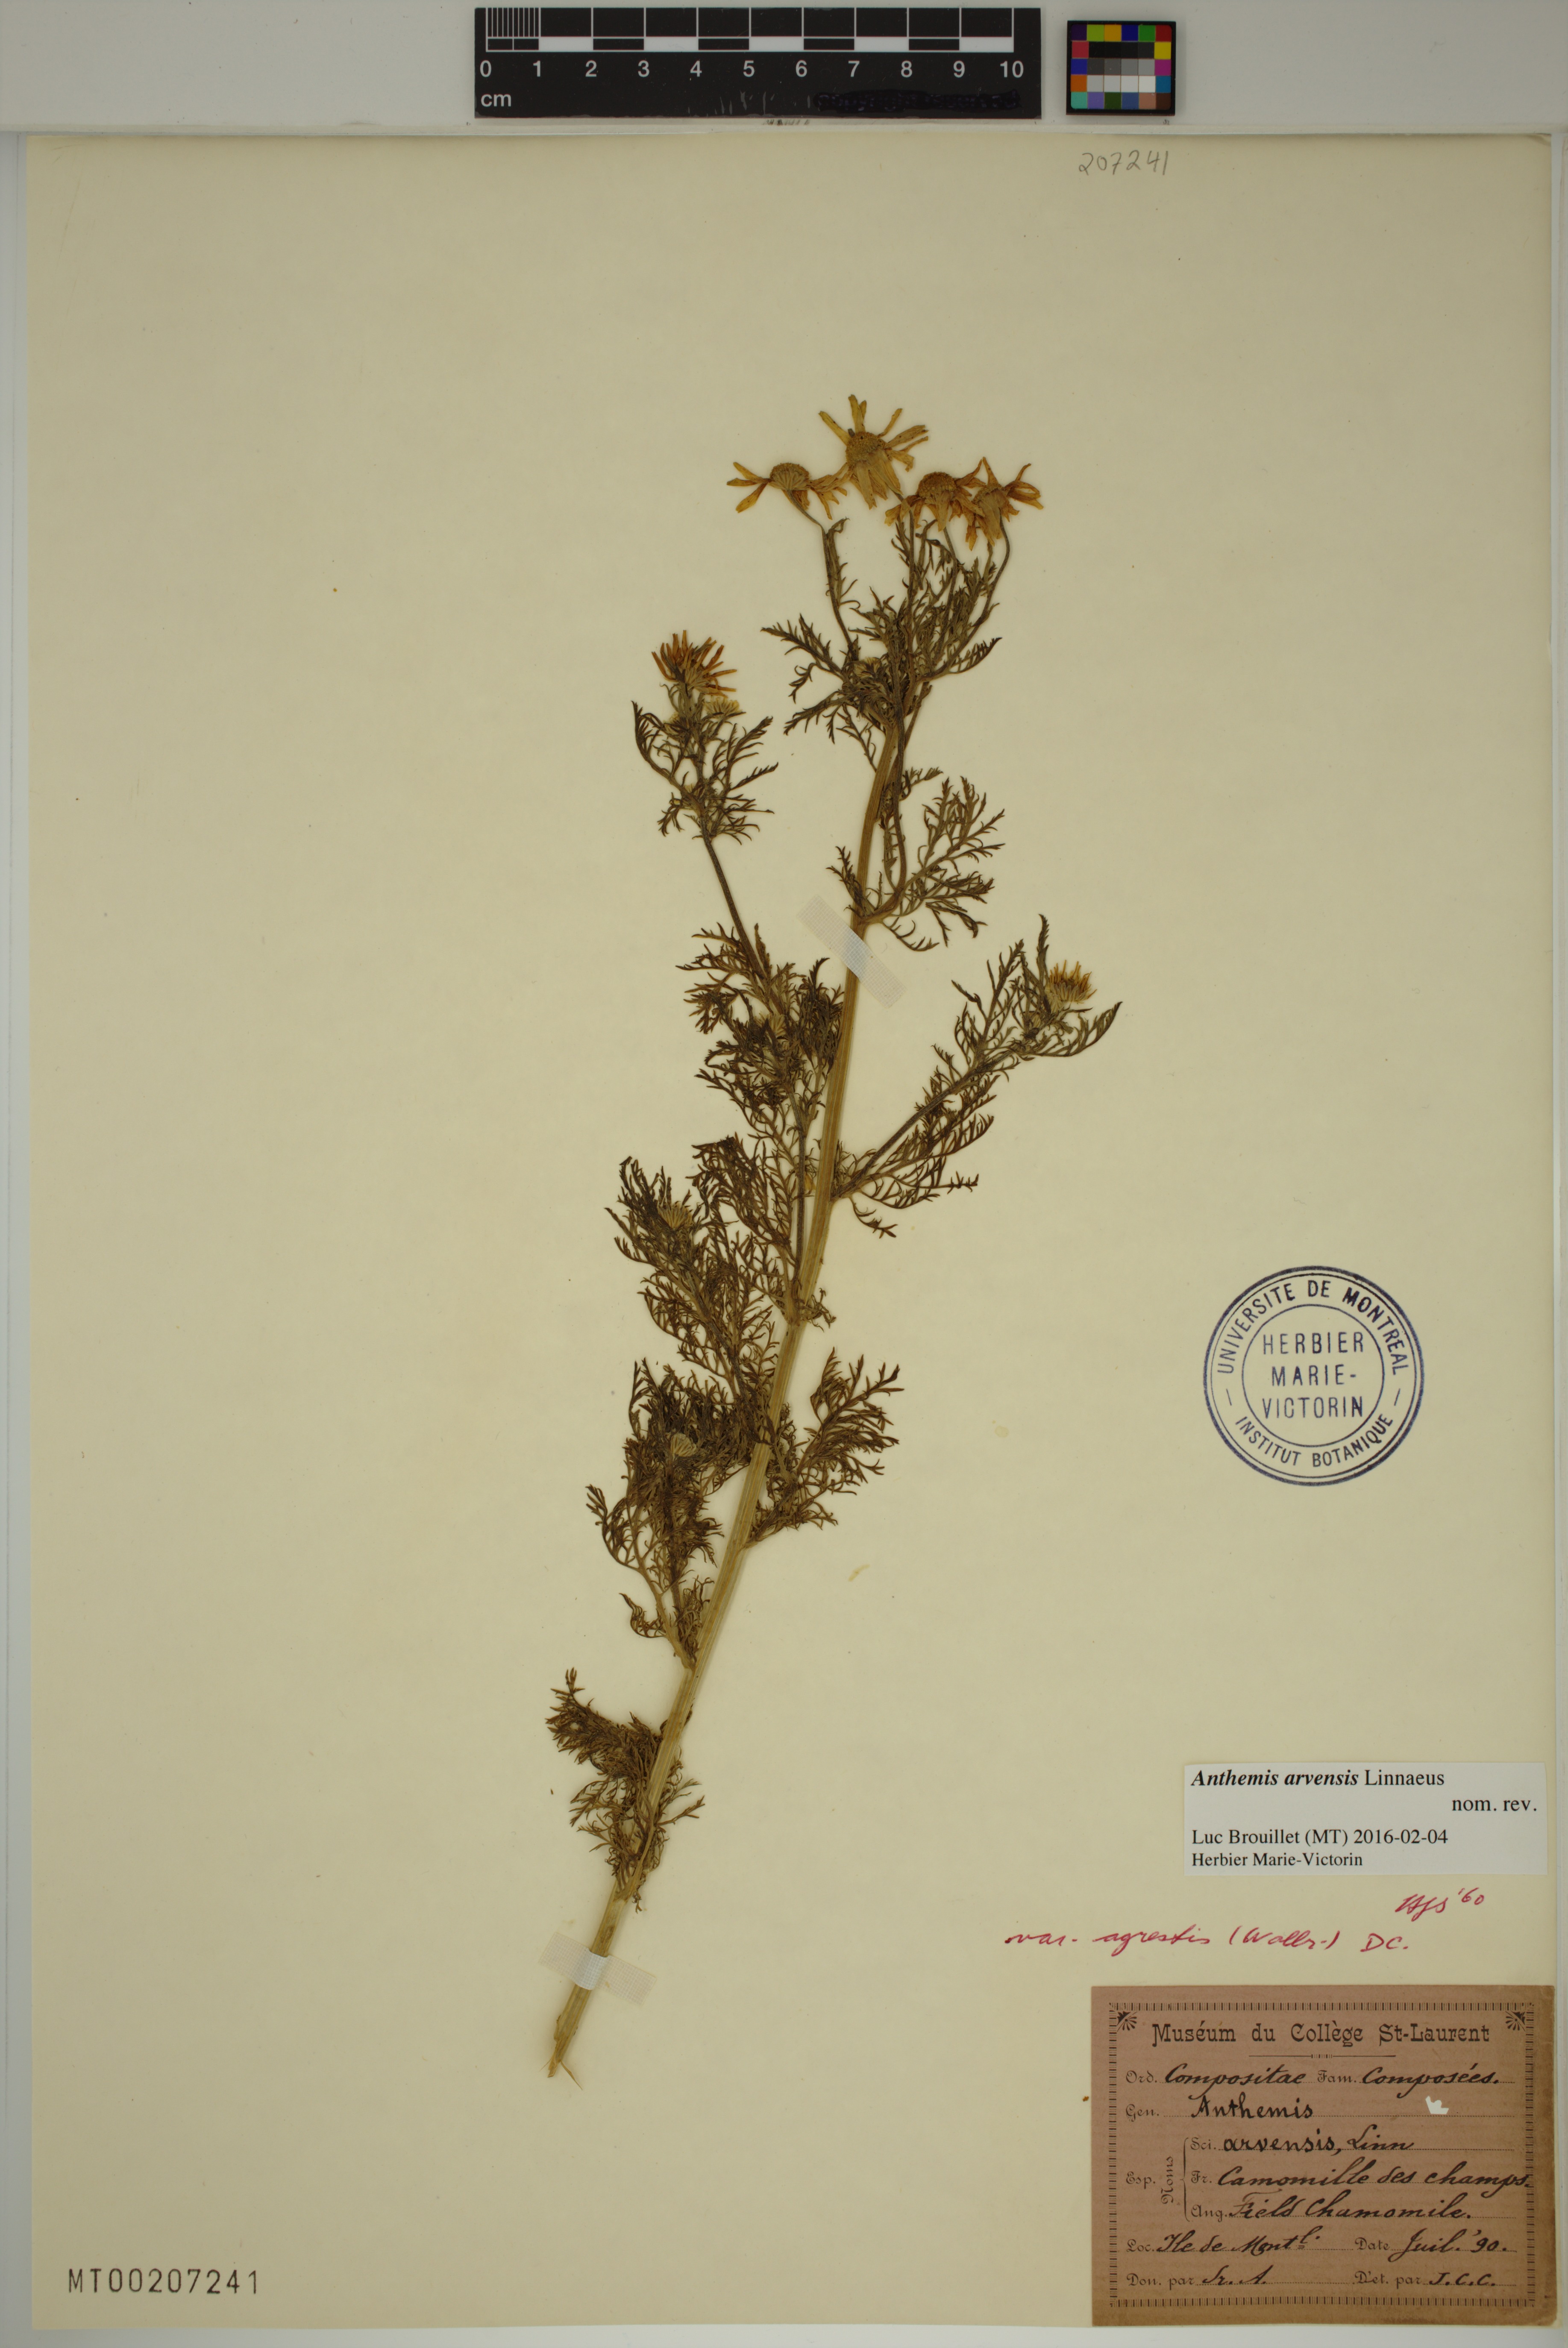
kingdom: Plantae
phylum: Tracheophyta
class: Magnoliopsida
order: Asterales
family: Asteraceae
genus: Anthemis
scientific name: Anthemis arvensis
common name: Corn chamomile
